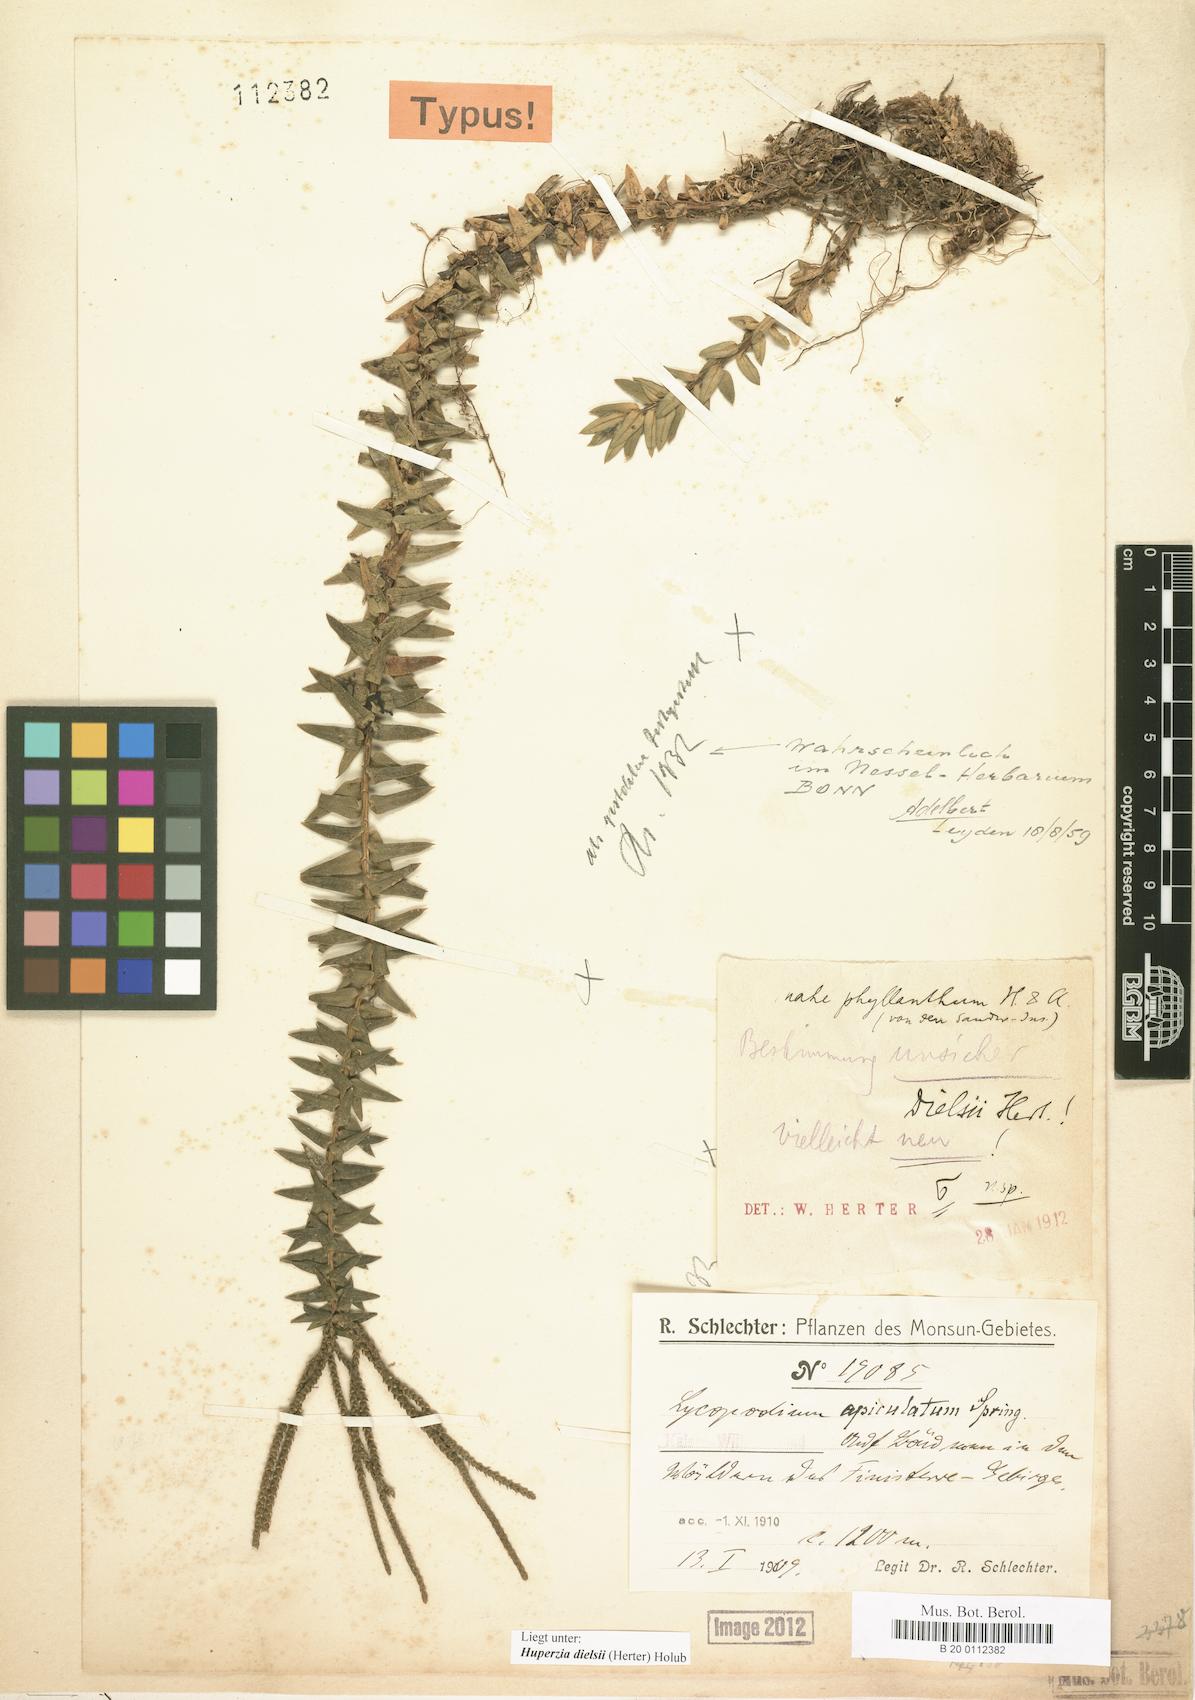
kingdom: Plantae
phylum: Tracheophyta
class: Lycopodiopsida
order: Lycopodiales
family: Lycopodiaceae
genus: Phlegmariurus
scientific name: Phlegmariurus dielsii
